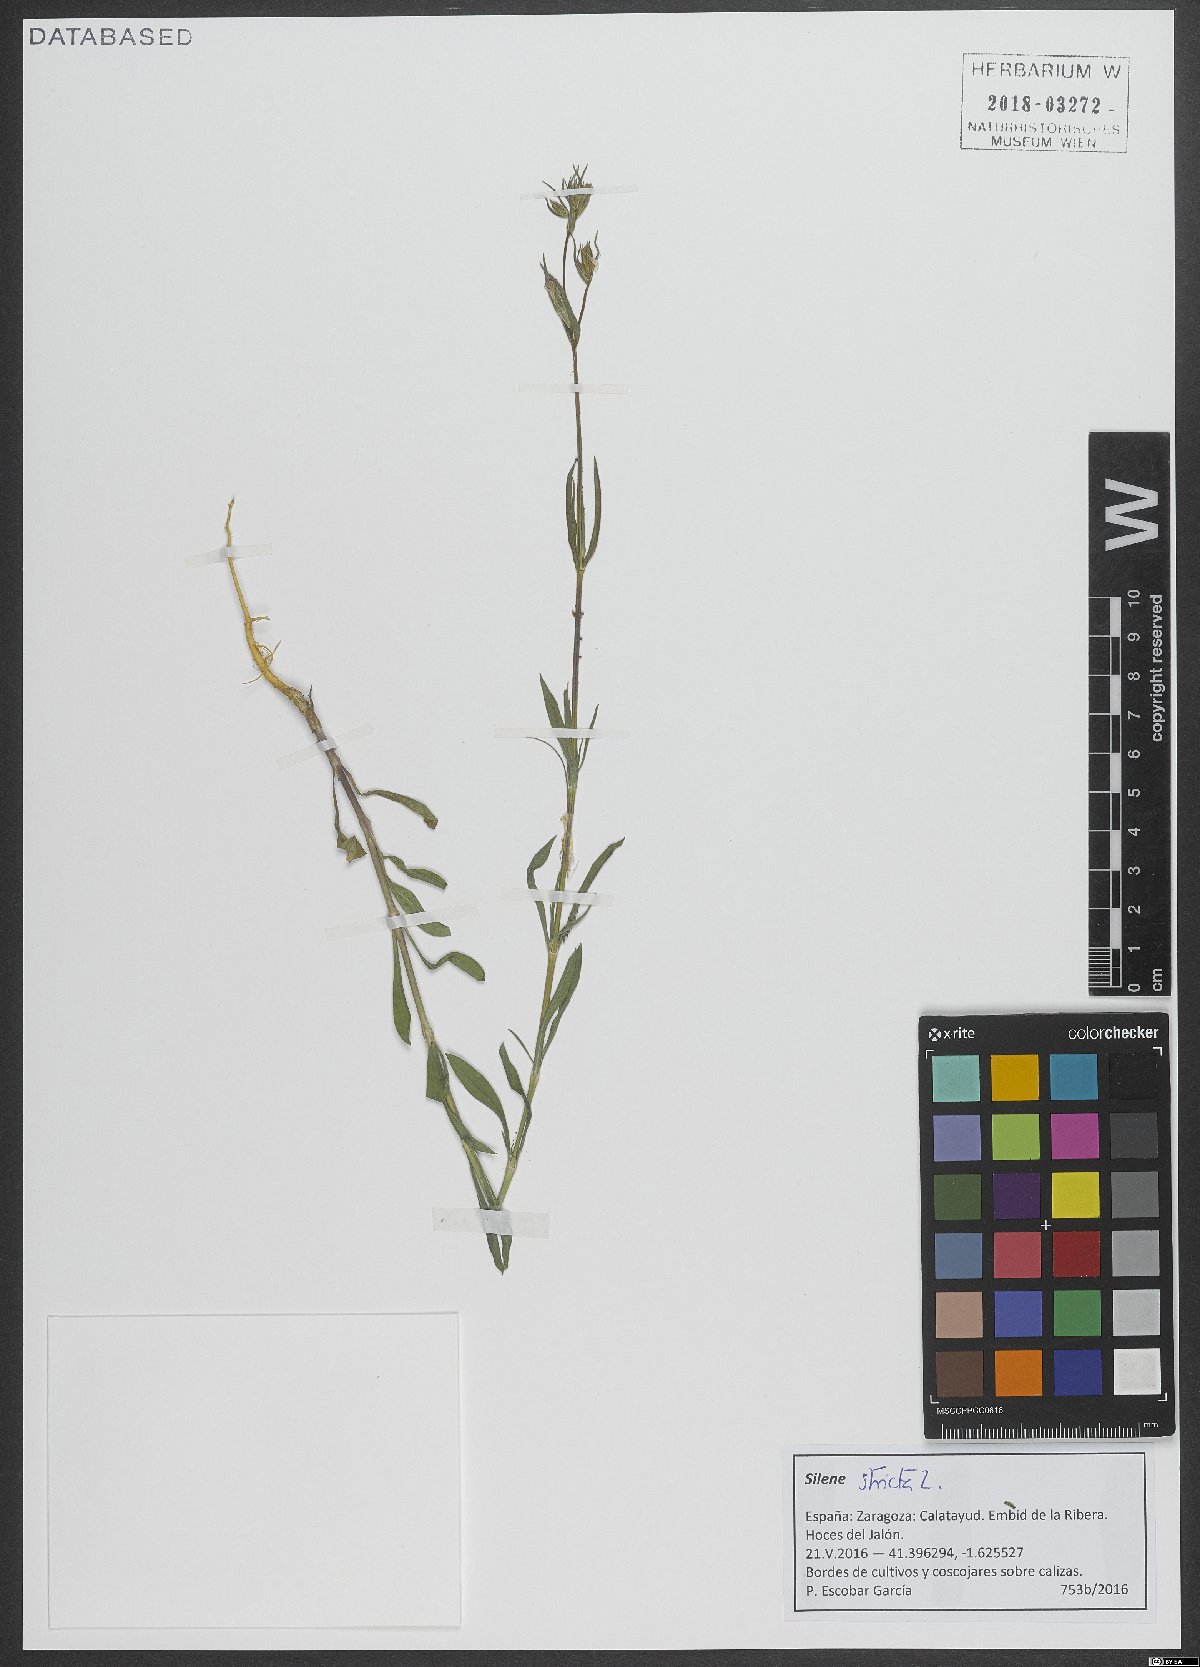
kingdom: Plantae
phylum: Tracheophyta
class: Magnoliopsida
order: Caryophyllales
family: Caryophyllaceae
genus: Silene
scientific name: Silene stricta
